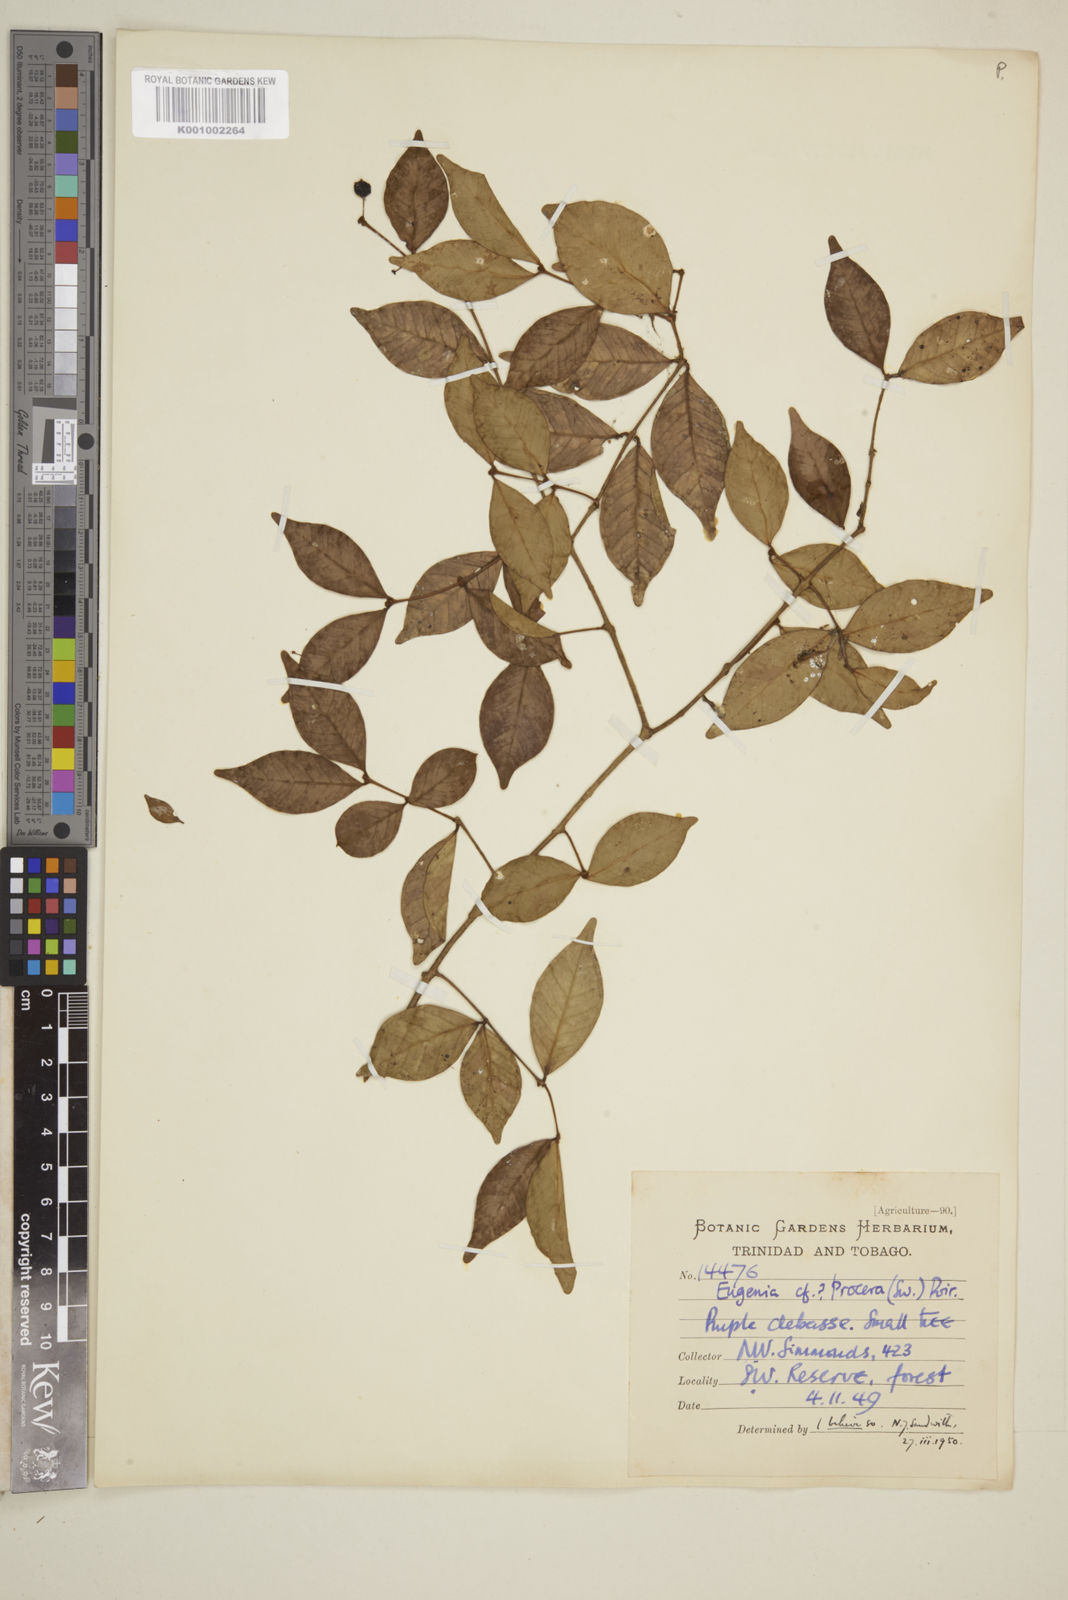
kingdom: Plantae
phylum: Tracheophyta
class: Magnoliopsida
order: Myrtales
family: Myrtaceae
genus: Eugenia
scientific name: Eugenia procera
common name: Bastard blackberry
